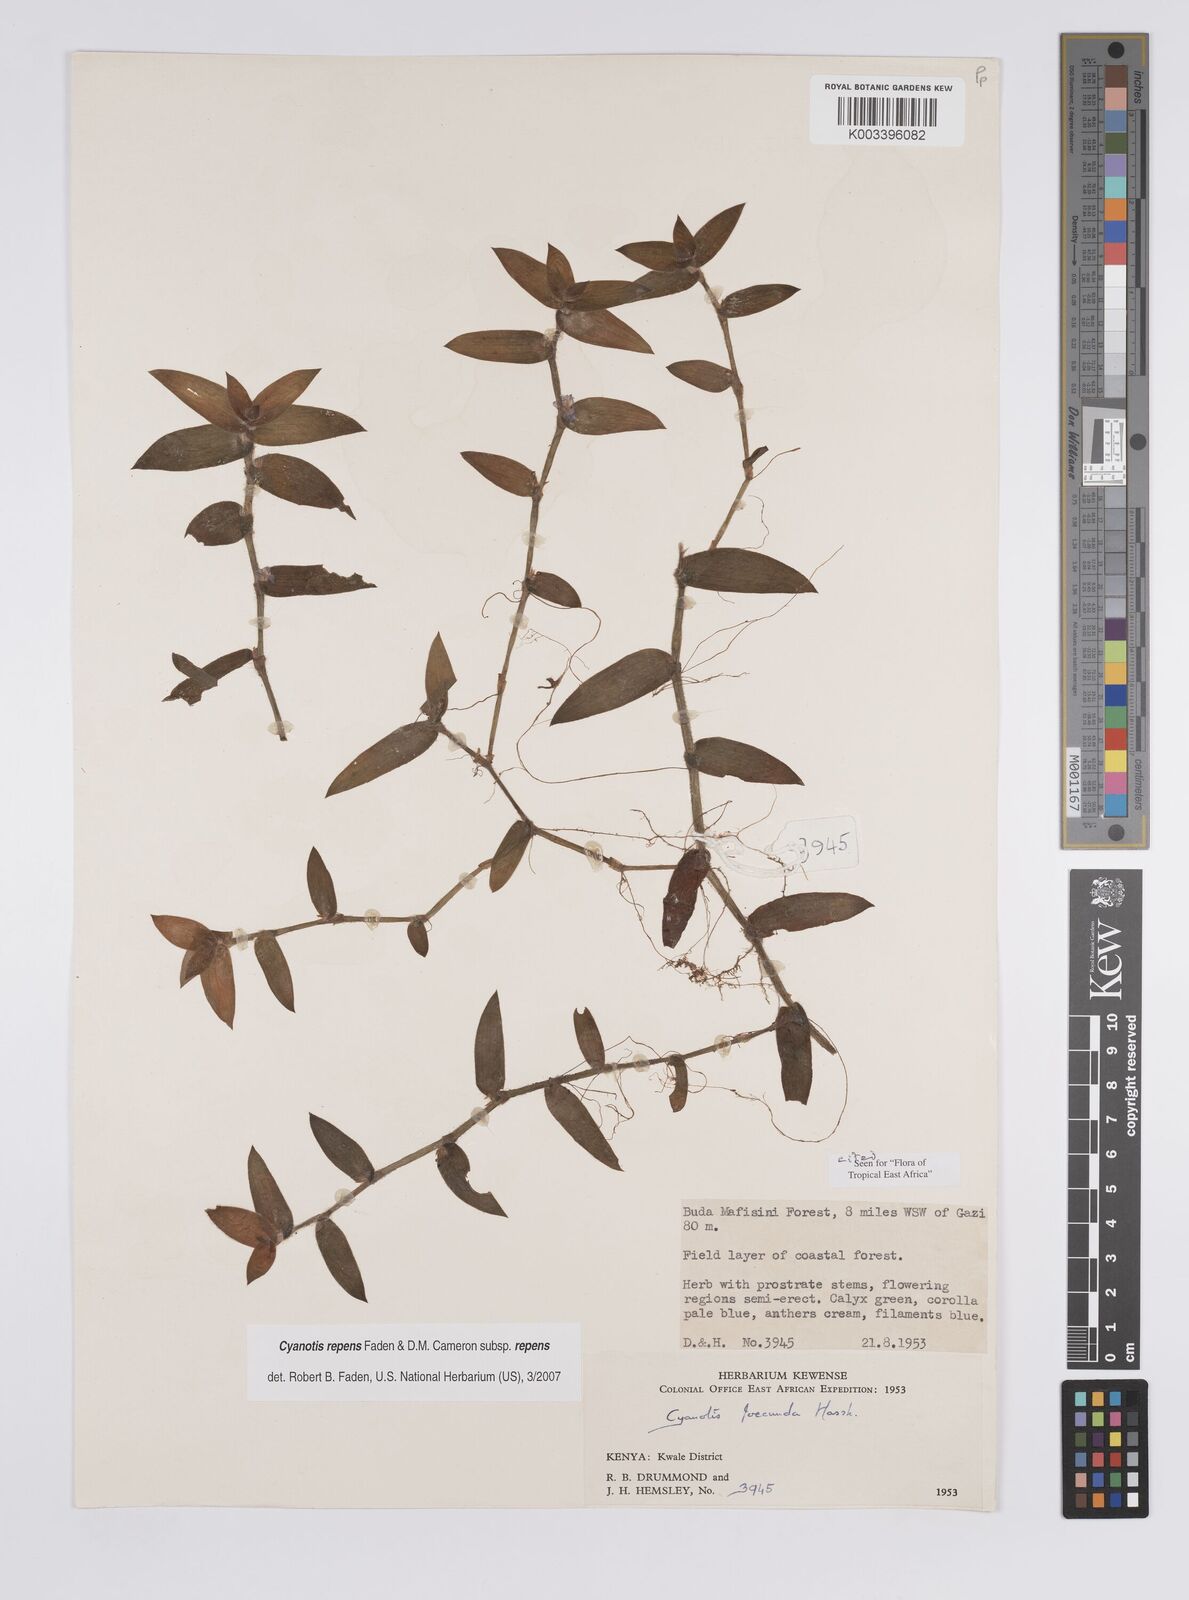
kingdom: Plantae
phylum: Tracheophyta
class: Liliopsida
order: Commelinales
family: Commelinaceae
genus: Cyanotis
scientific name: Cyanotis repens
